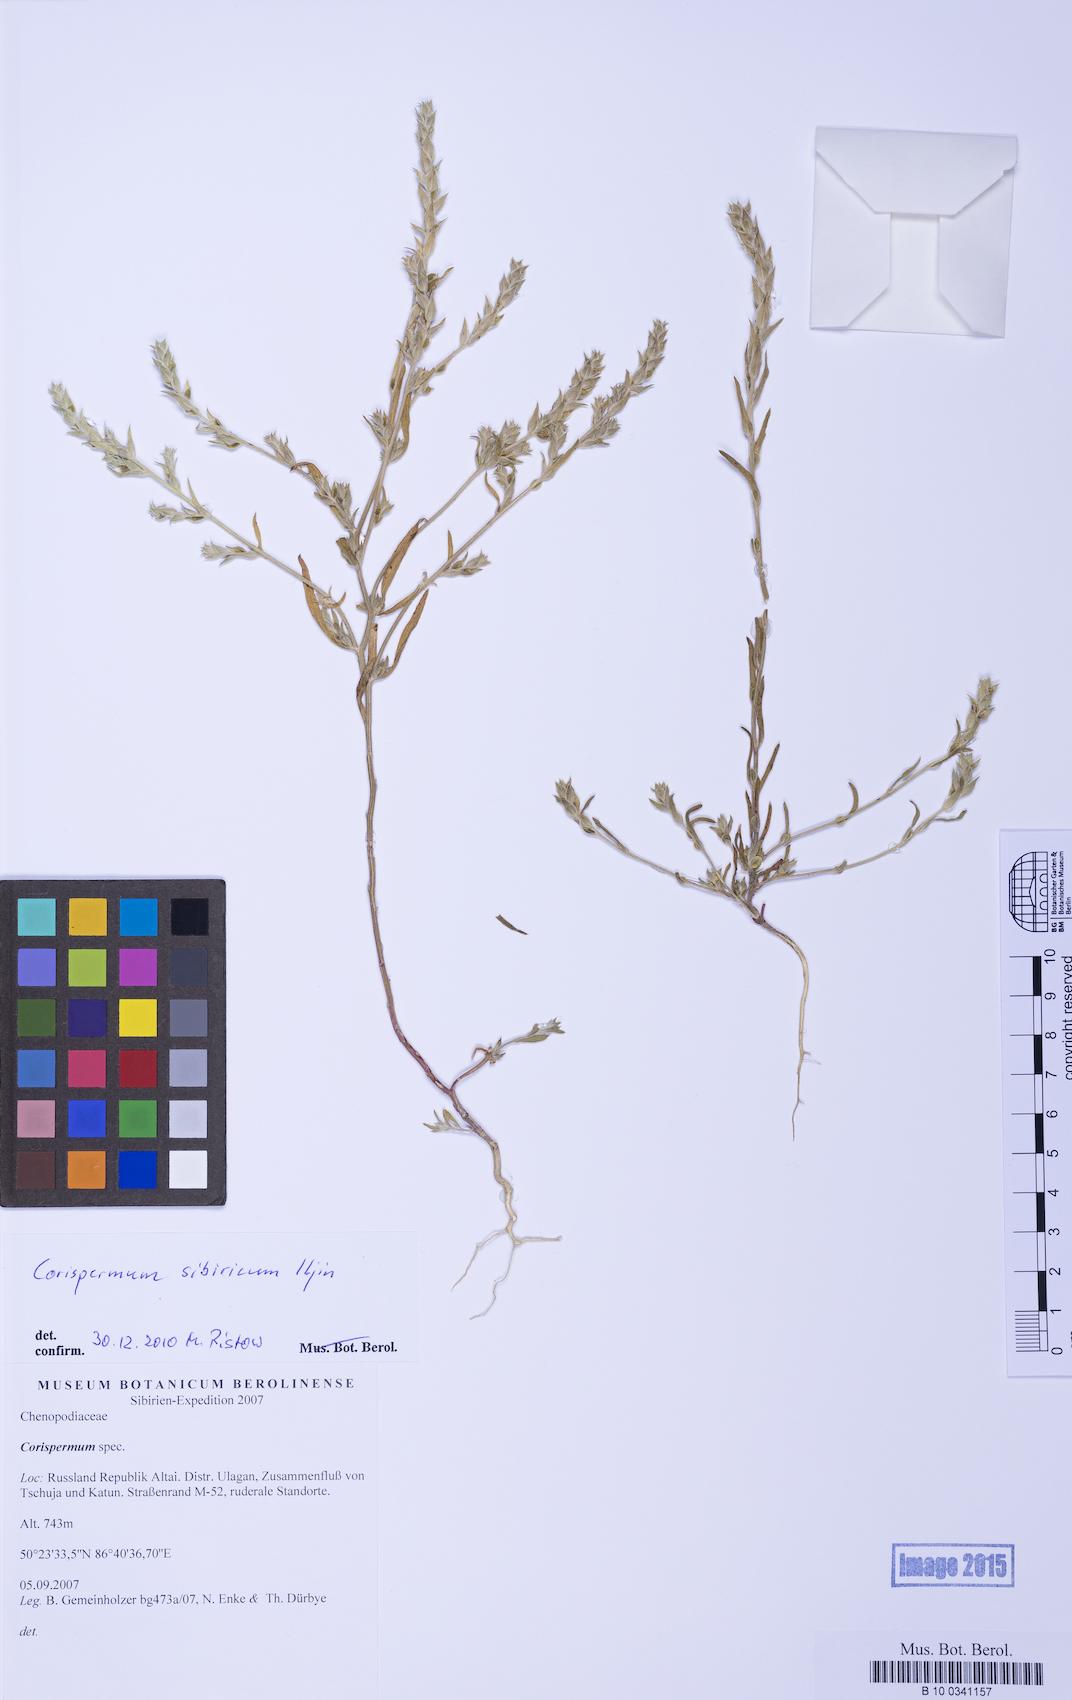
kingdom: Plantae
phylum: Tracheophyta
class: Magnoliopsida
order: Caryophyllales
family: Amaranthaceae
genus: Corispermum
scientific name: Corispermum sibiricum
